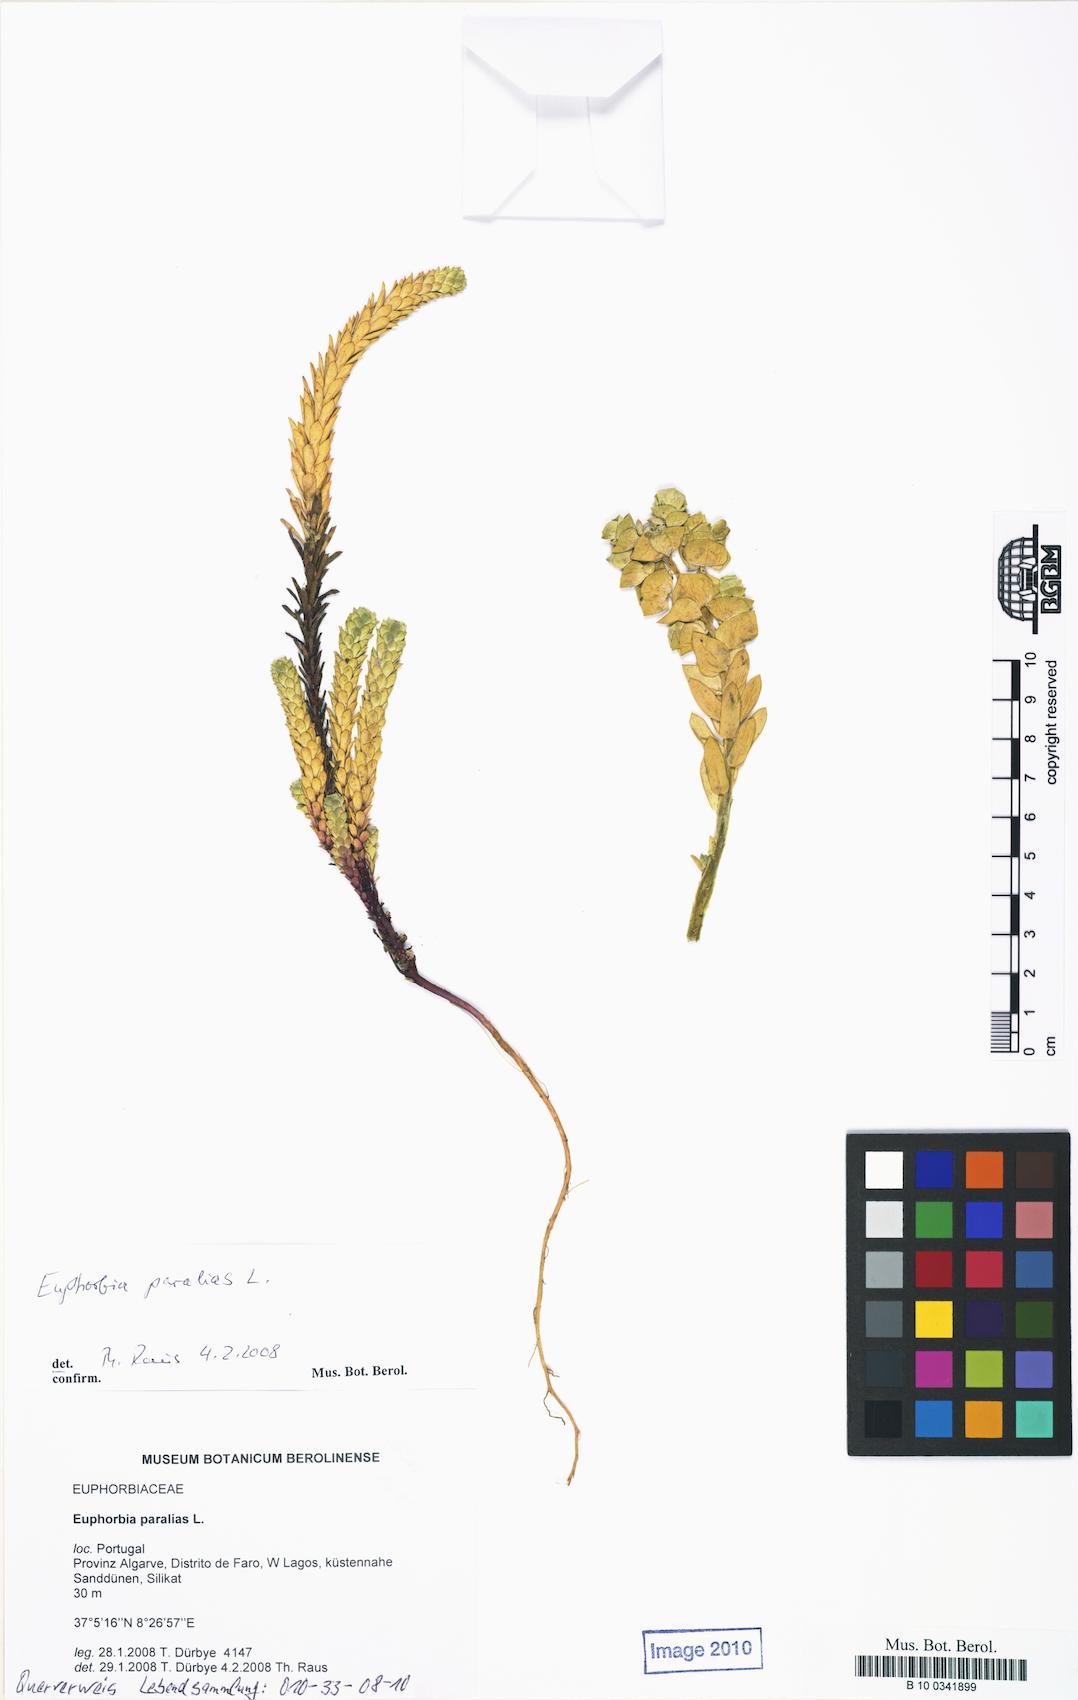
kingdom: Plantae
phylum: Tracheophyta
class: Magnoliopsida
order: Malpighiales
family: Euphorbiaceae
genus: Euphorbia
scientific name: Euphorbia paralias
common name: Sea spurge
